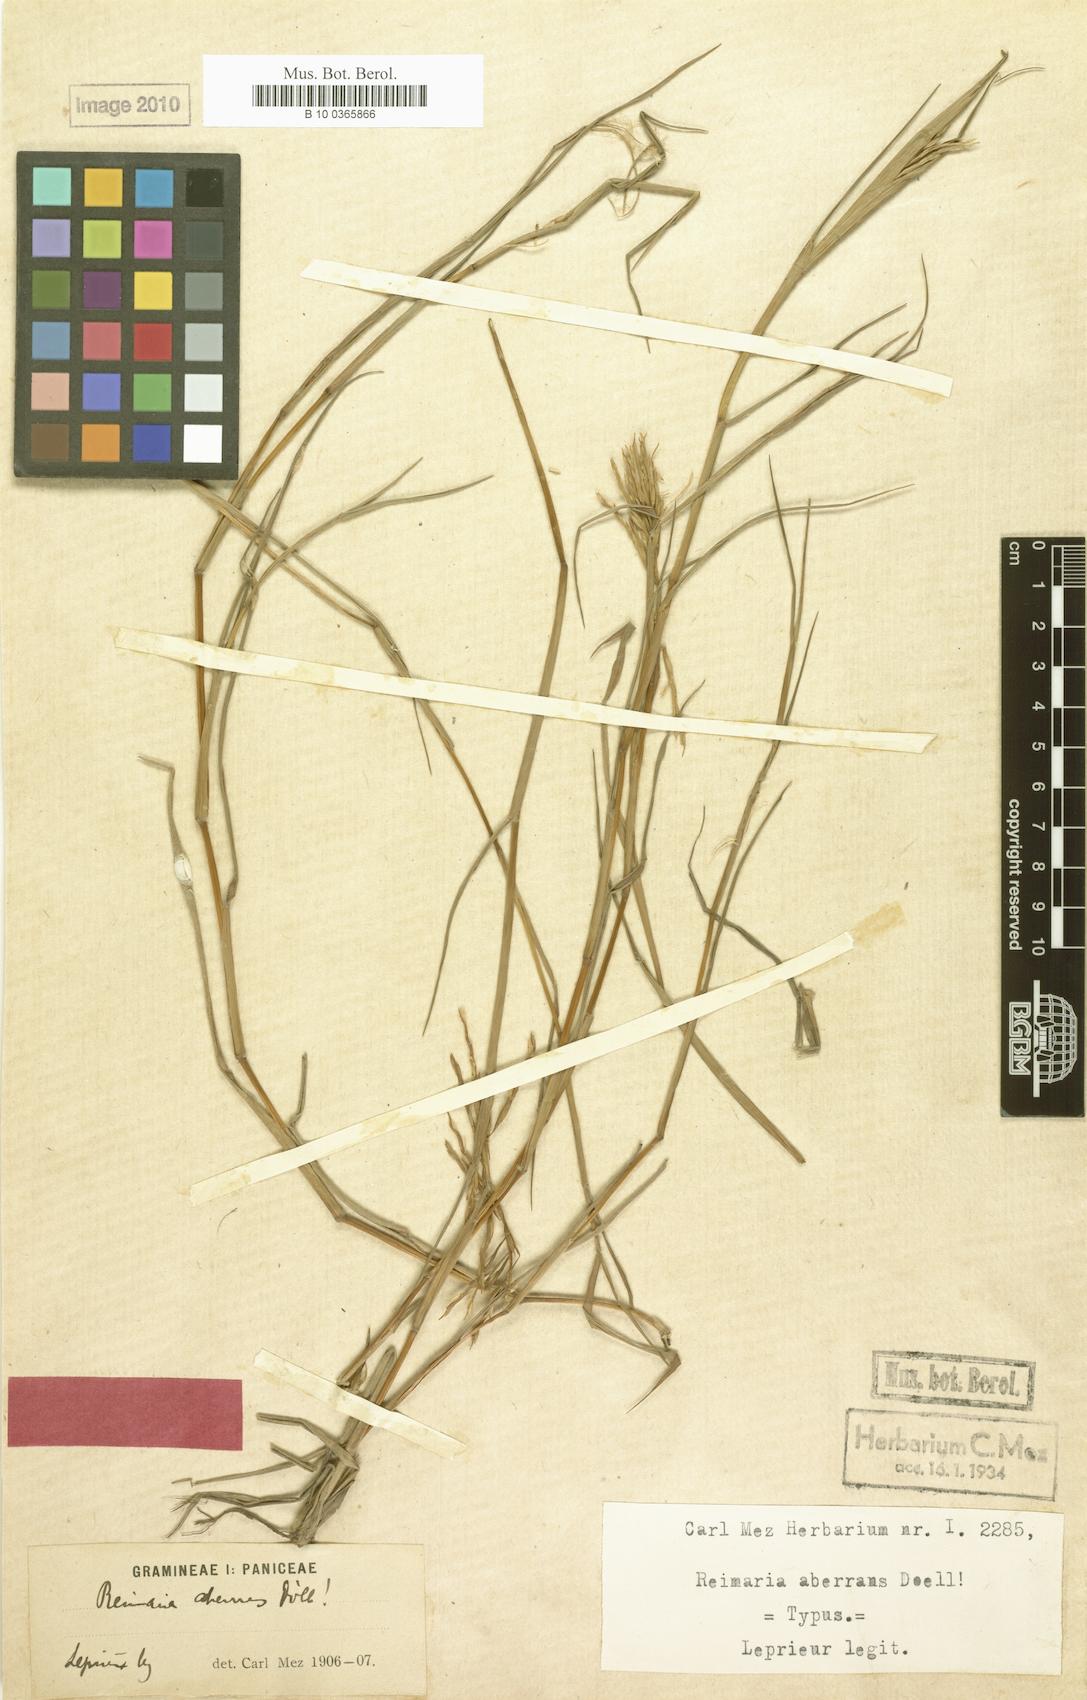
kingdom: Plantae
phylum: Tracheophyta
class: Liliopsida
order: Poales
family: Poaceae
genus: Paspalum
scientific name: Paspalum aberrans
